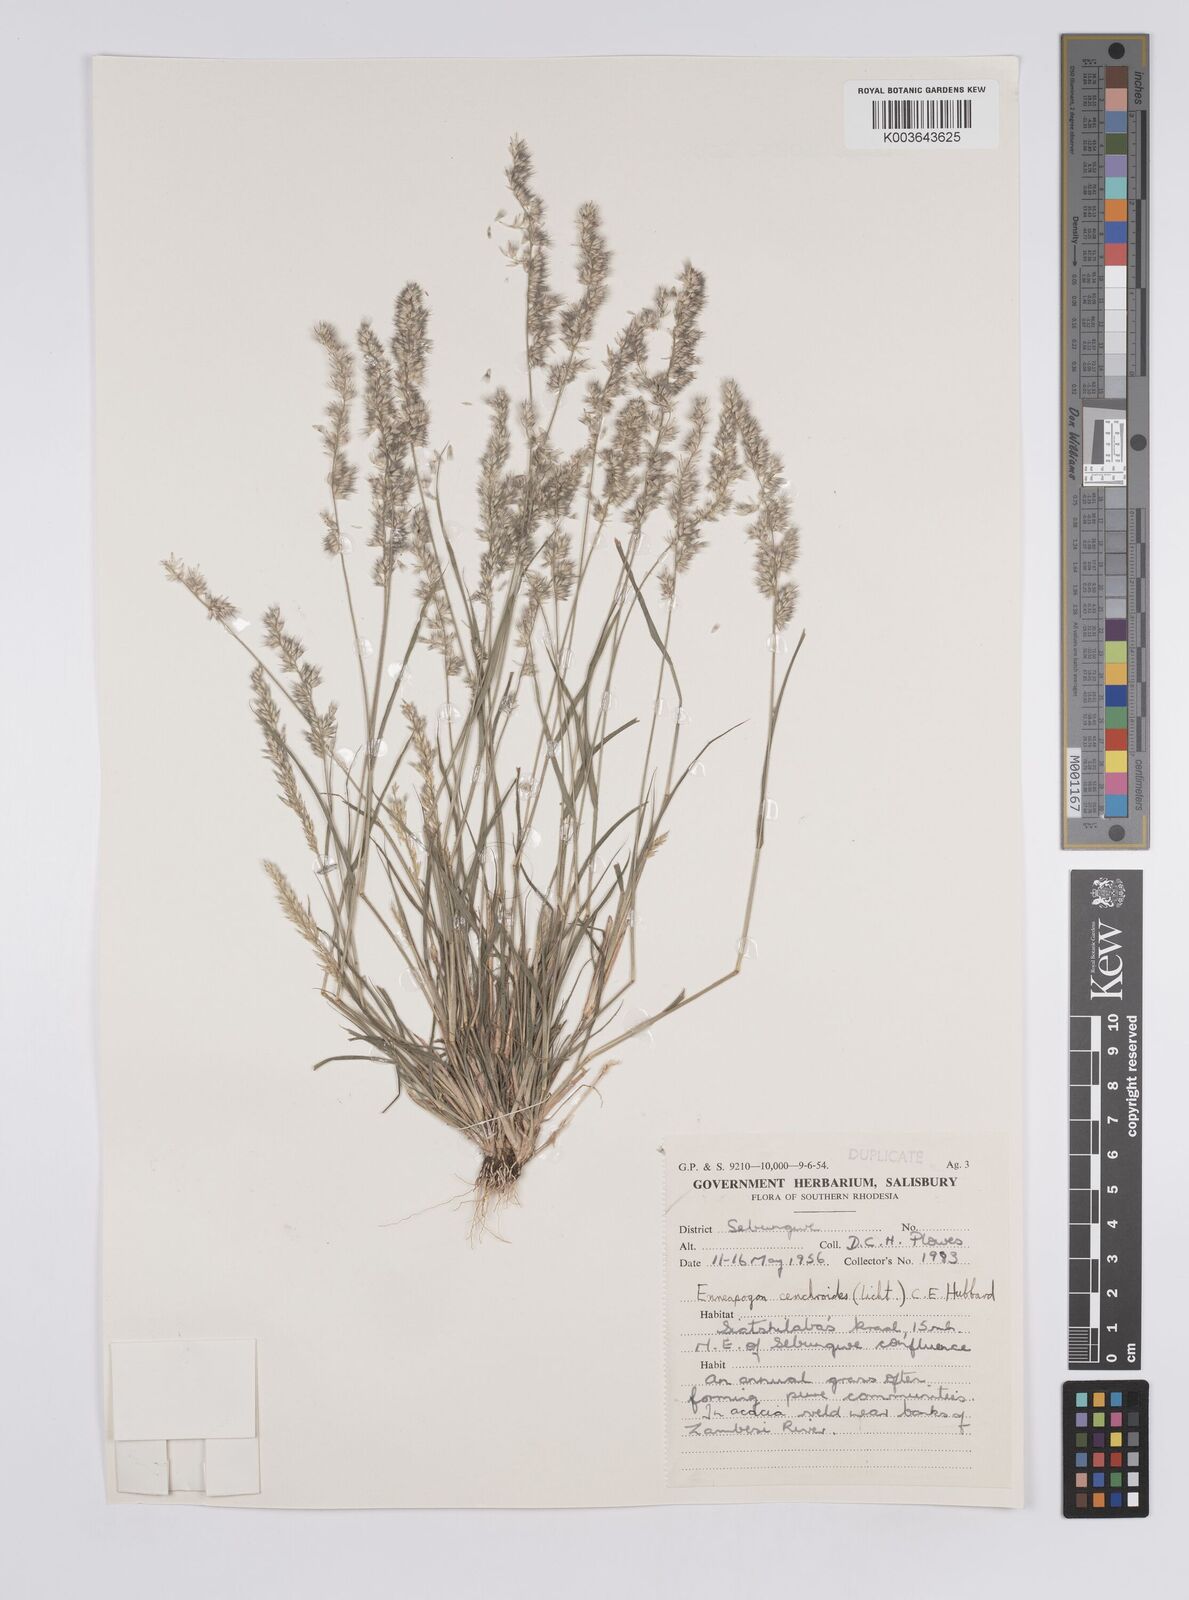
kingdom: Plantae
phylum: Tracheophyta
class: Liliopsida
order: Poales
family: Poaceae
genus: Enneapogon
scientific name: Enneapogon cenchroides
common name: Soft feather pappusgrass
